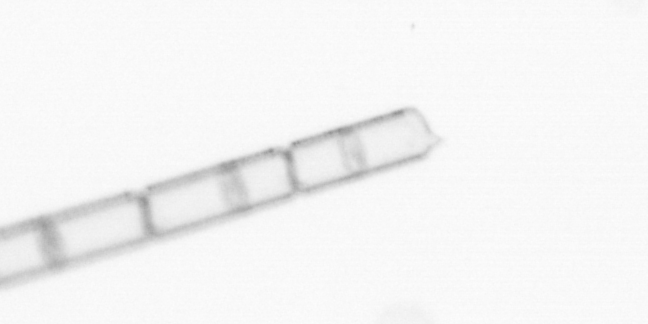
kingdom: Chromista
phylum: Ochrophyta
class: Bacillariophyceae
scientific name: Bacillariophyceae
